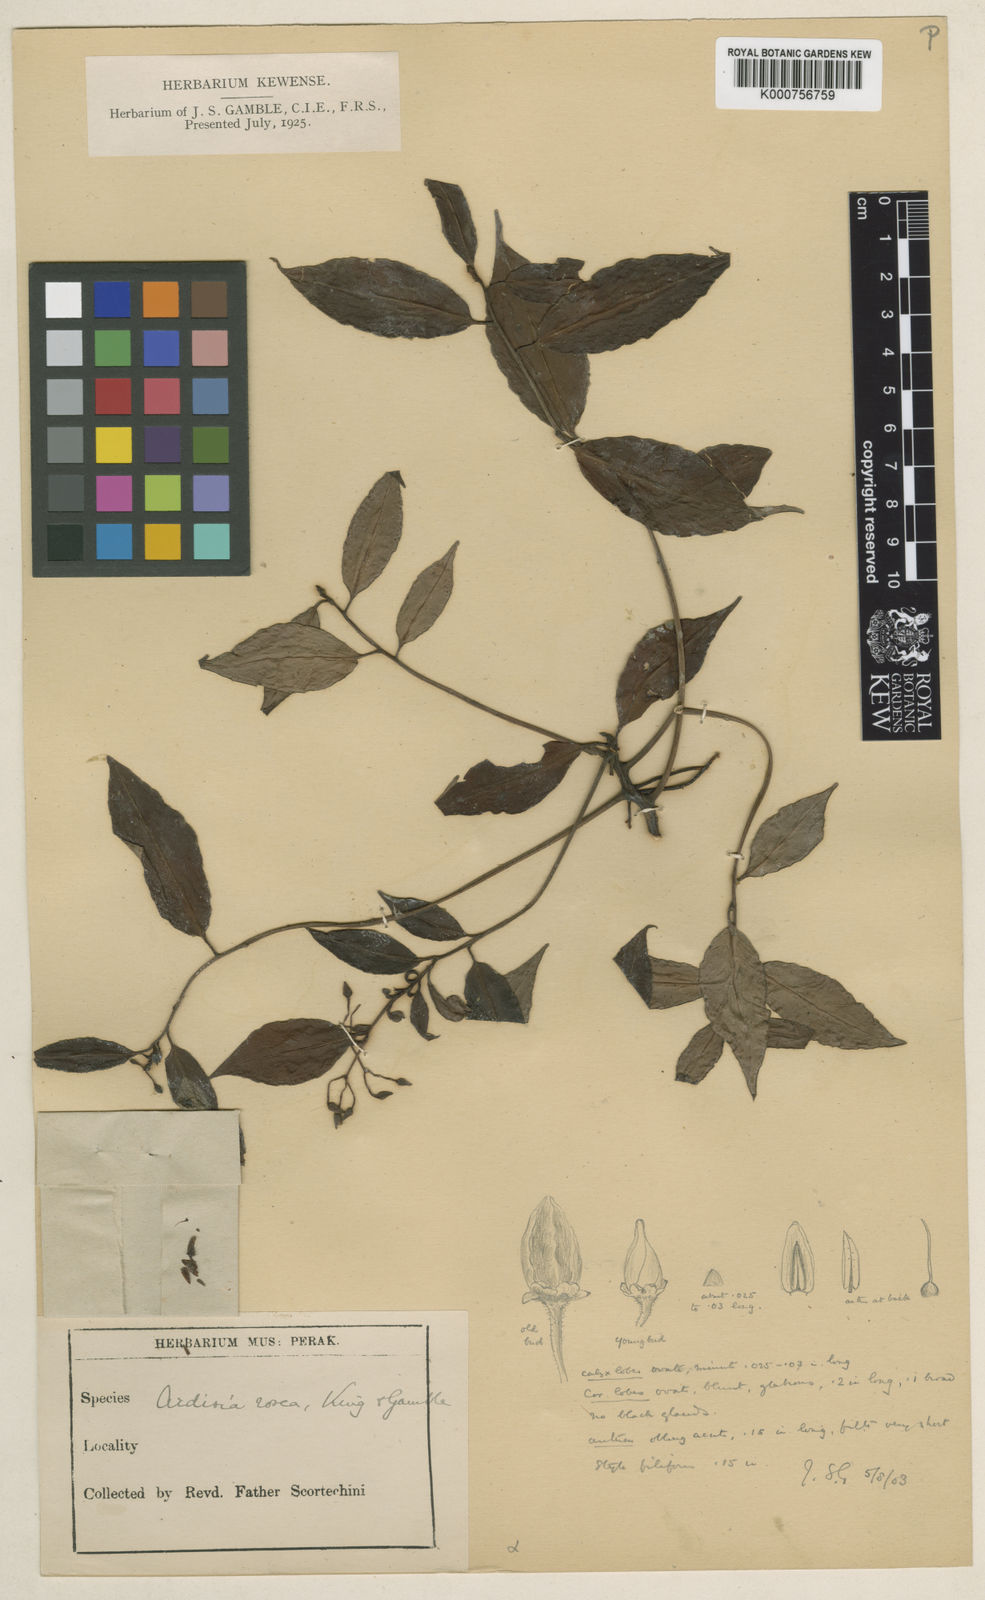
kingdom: Plantae
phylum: Tracheophyta
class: Magnoliopsida
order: Ericales
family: Primulaceae
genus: Ardisia
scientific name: Ardisia rosea
